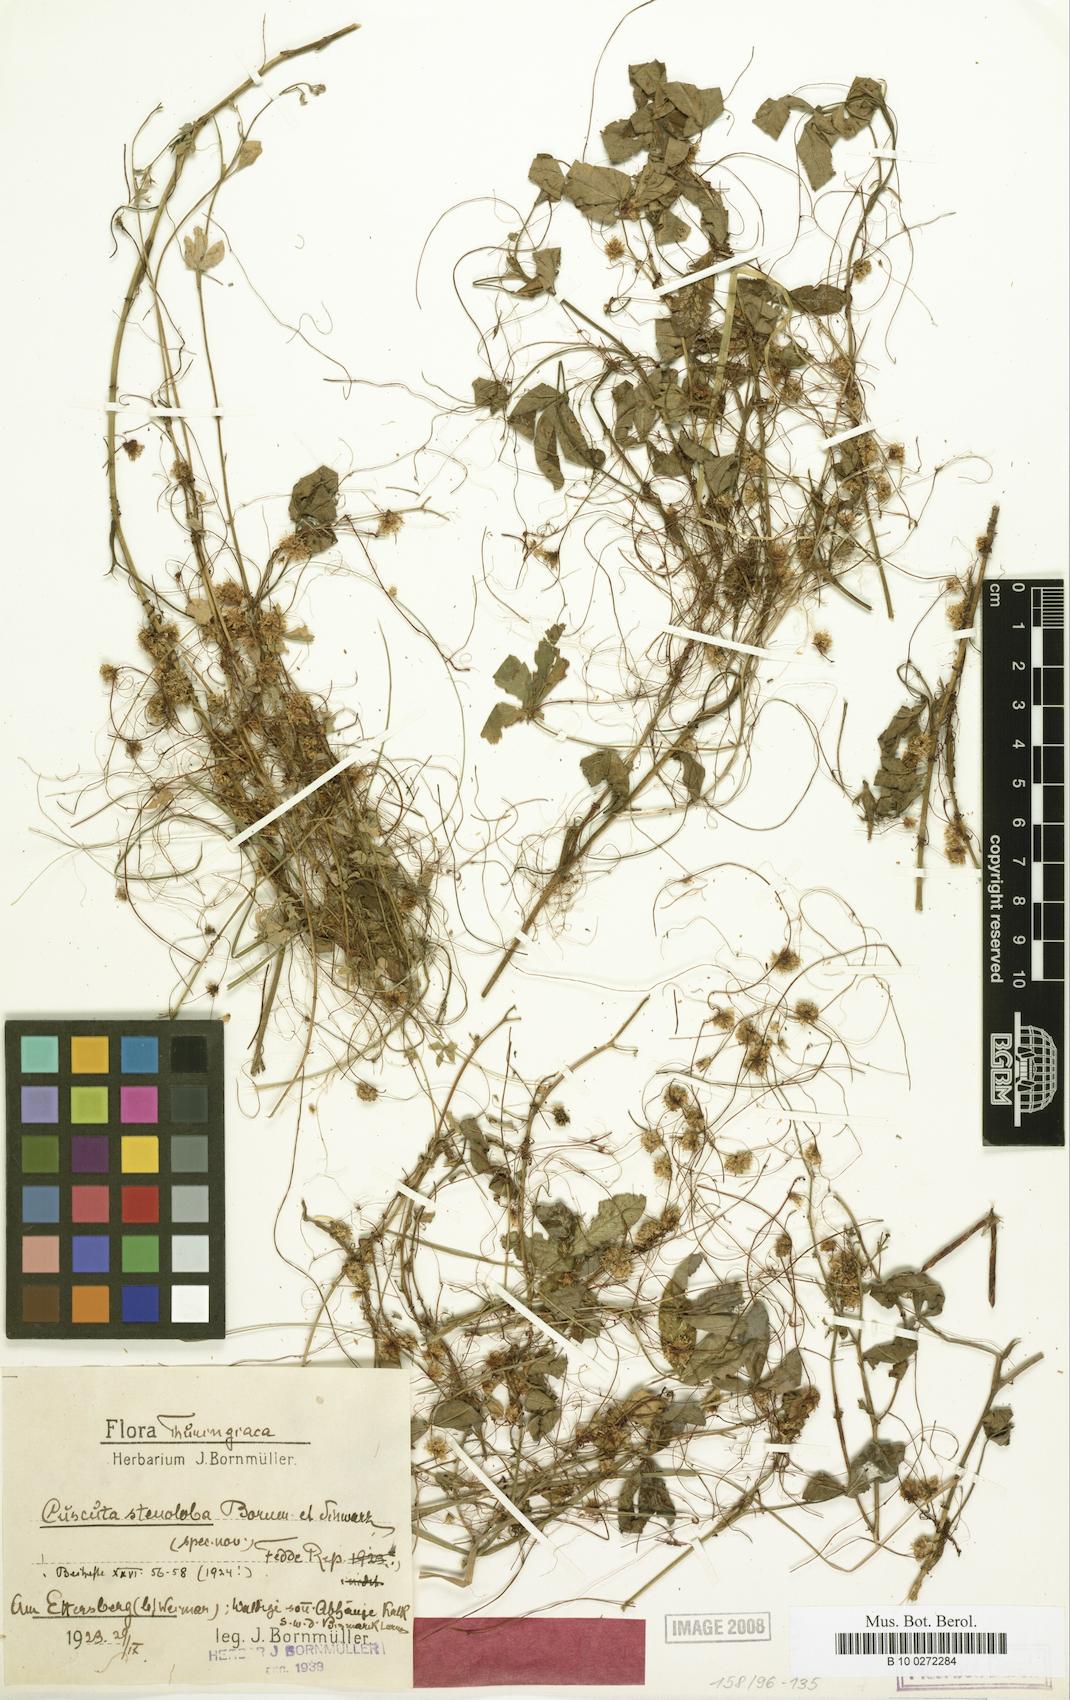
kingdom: Plantae
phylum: Tracheophyta
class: Magnoliopsida
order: Solanales
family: Convolvulaceae
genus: Cuscuta
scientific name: Cuscuta epithymum
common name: Clover dodder
